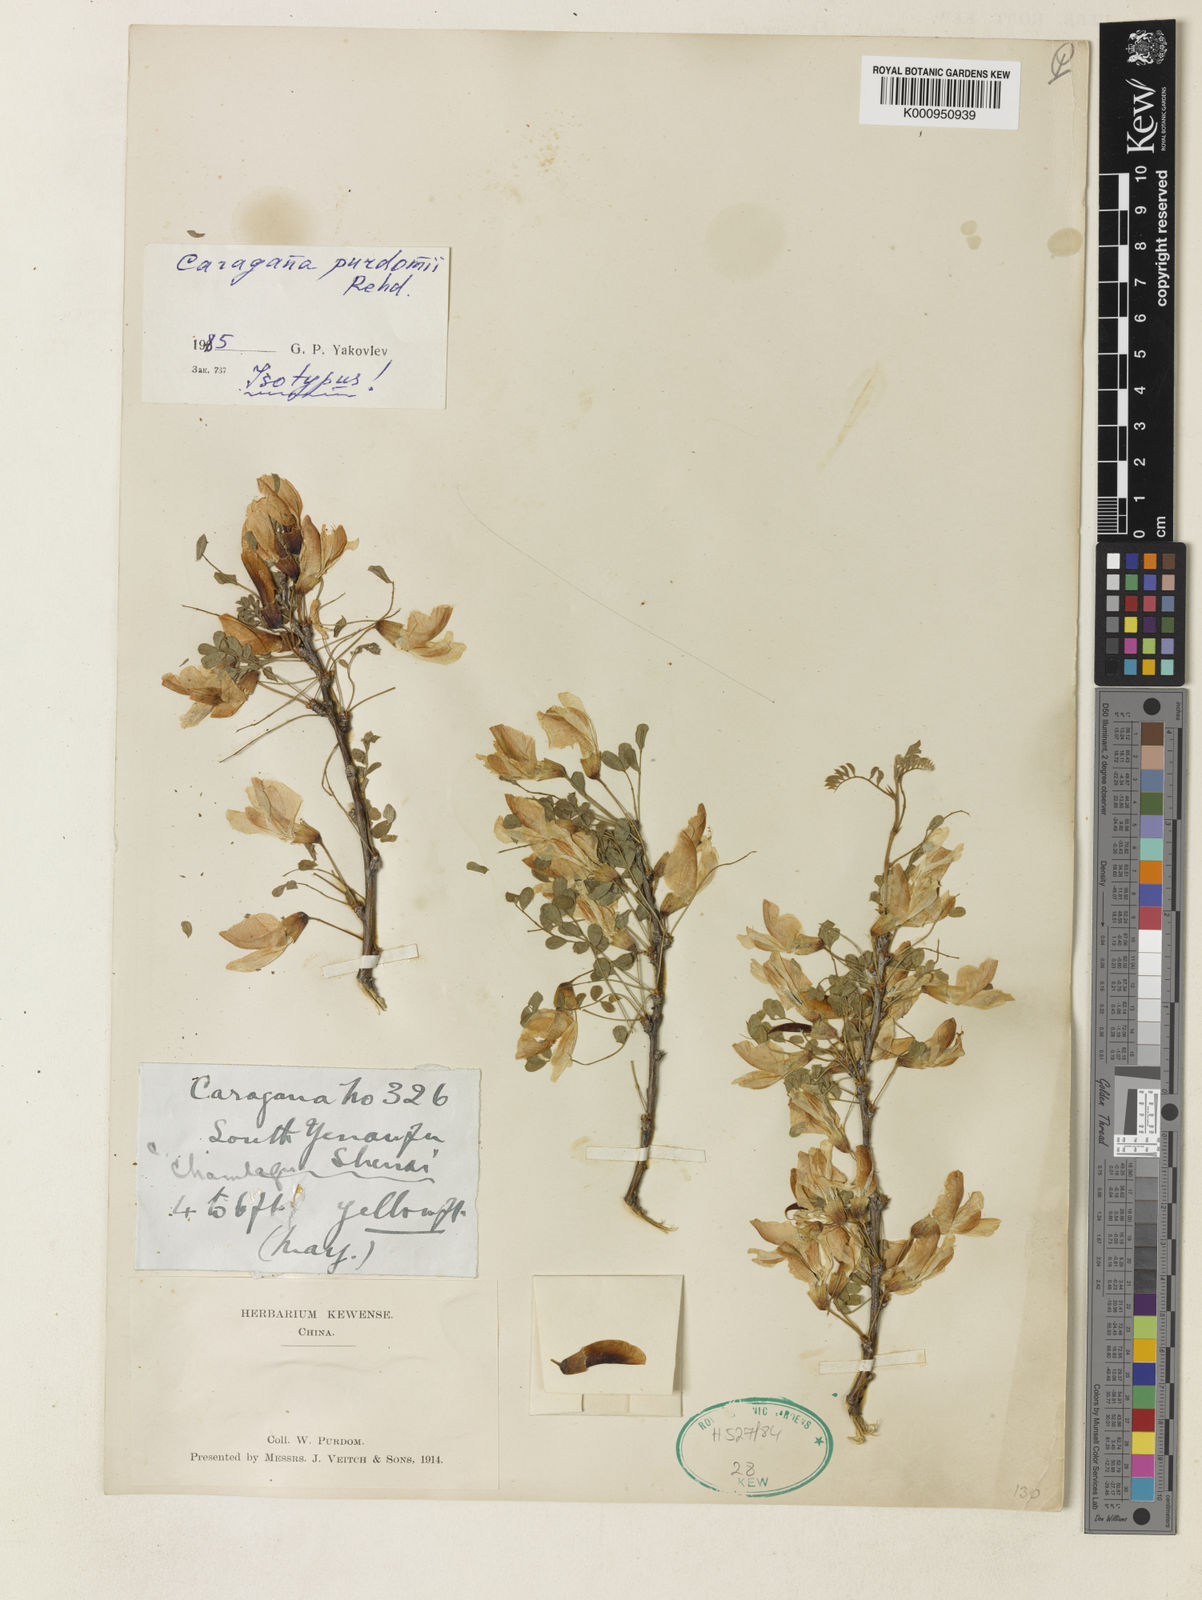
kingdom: Plantae
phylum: Tracheophyta
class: Magnoliopsida
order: Fabales
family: Fabaceae
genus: Caragana
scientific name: Caragana purdomii
